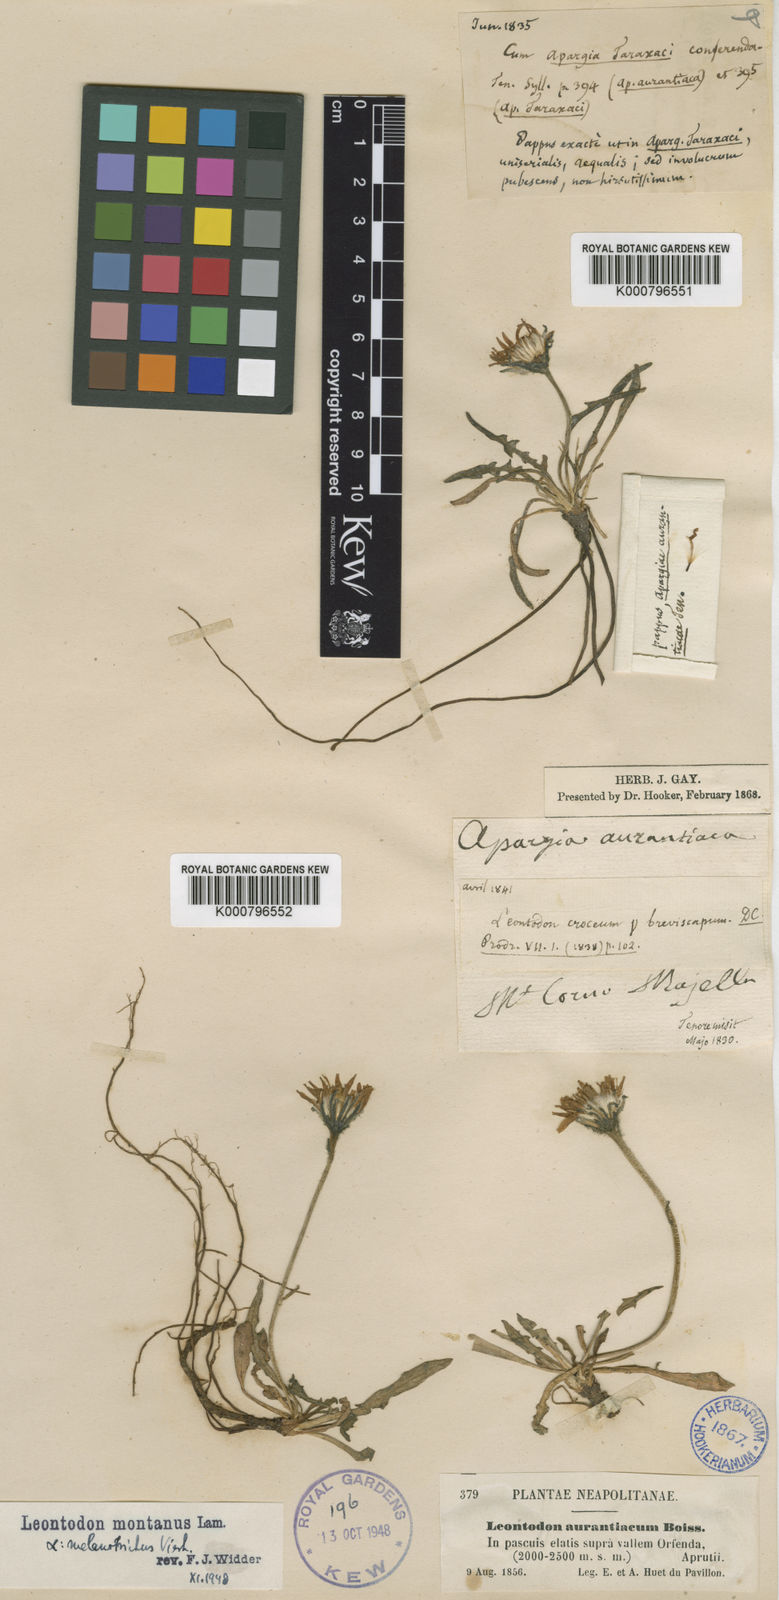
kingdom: Plantae
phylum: Tracheophyta
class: Magnoliopsida
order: Asterales
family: Asteraceae
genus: Scorzoneroides
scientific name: Scorzoneroides montana
